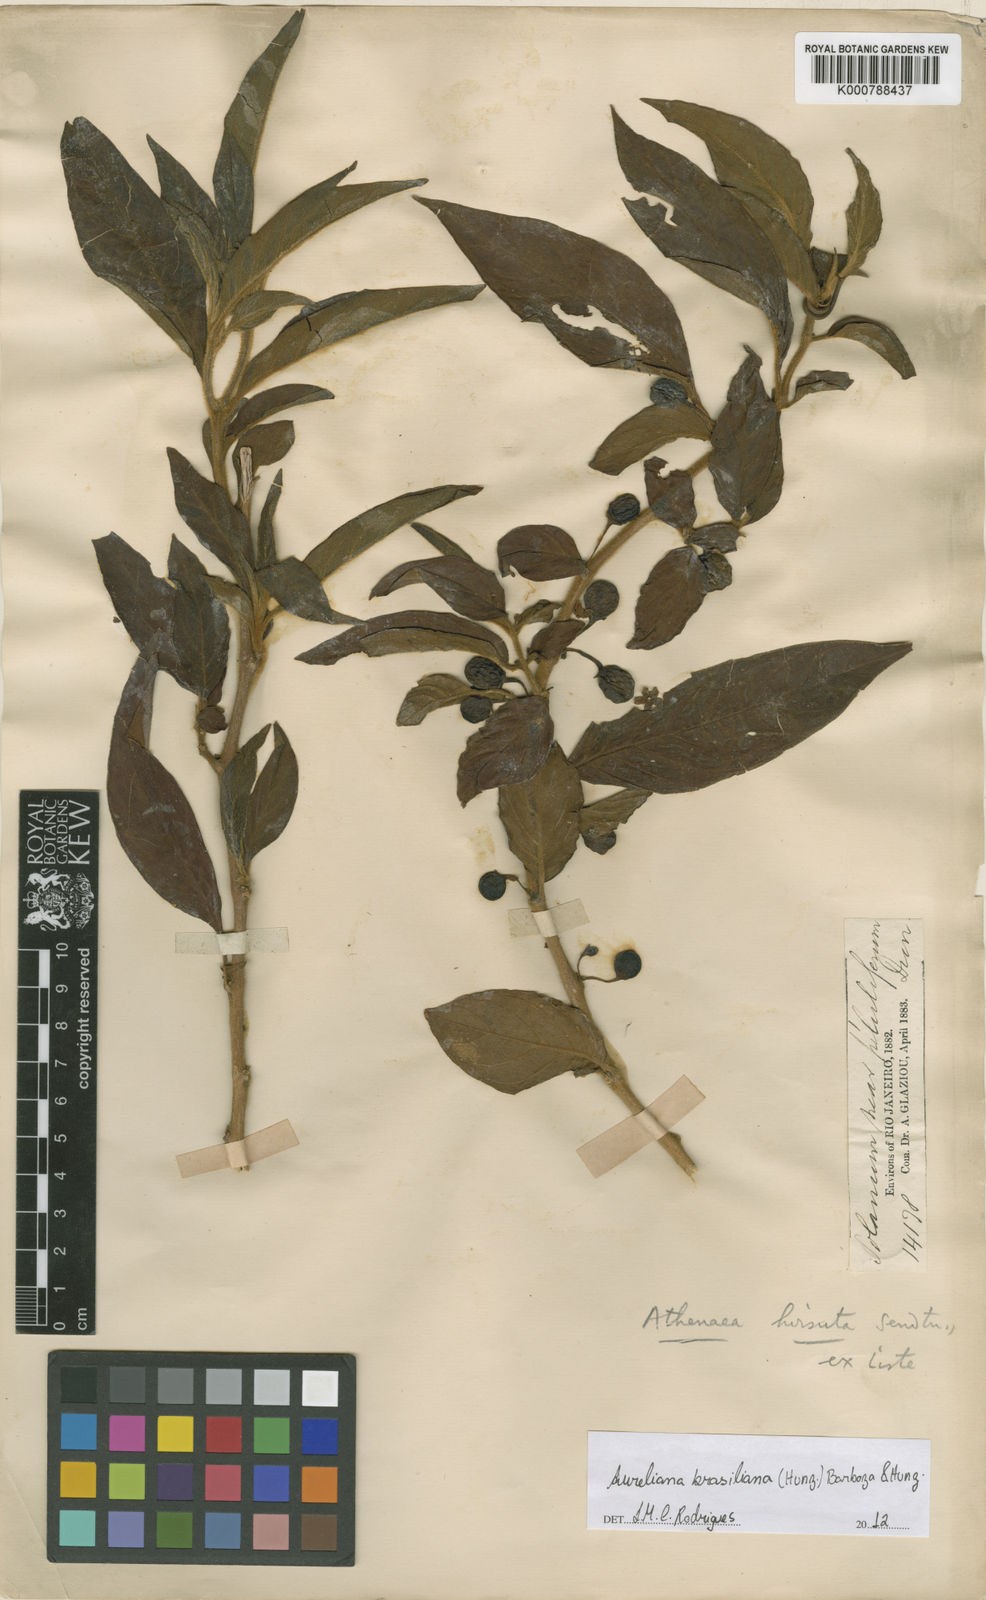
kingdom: Plantae
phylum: Tracheophyta
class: Magnoliopsida
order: Solanales
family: Solanaceae
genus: Athenaea
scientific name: Athenaea brasiliana
